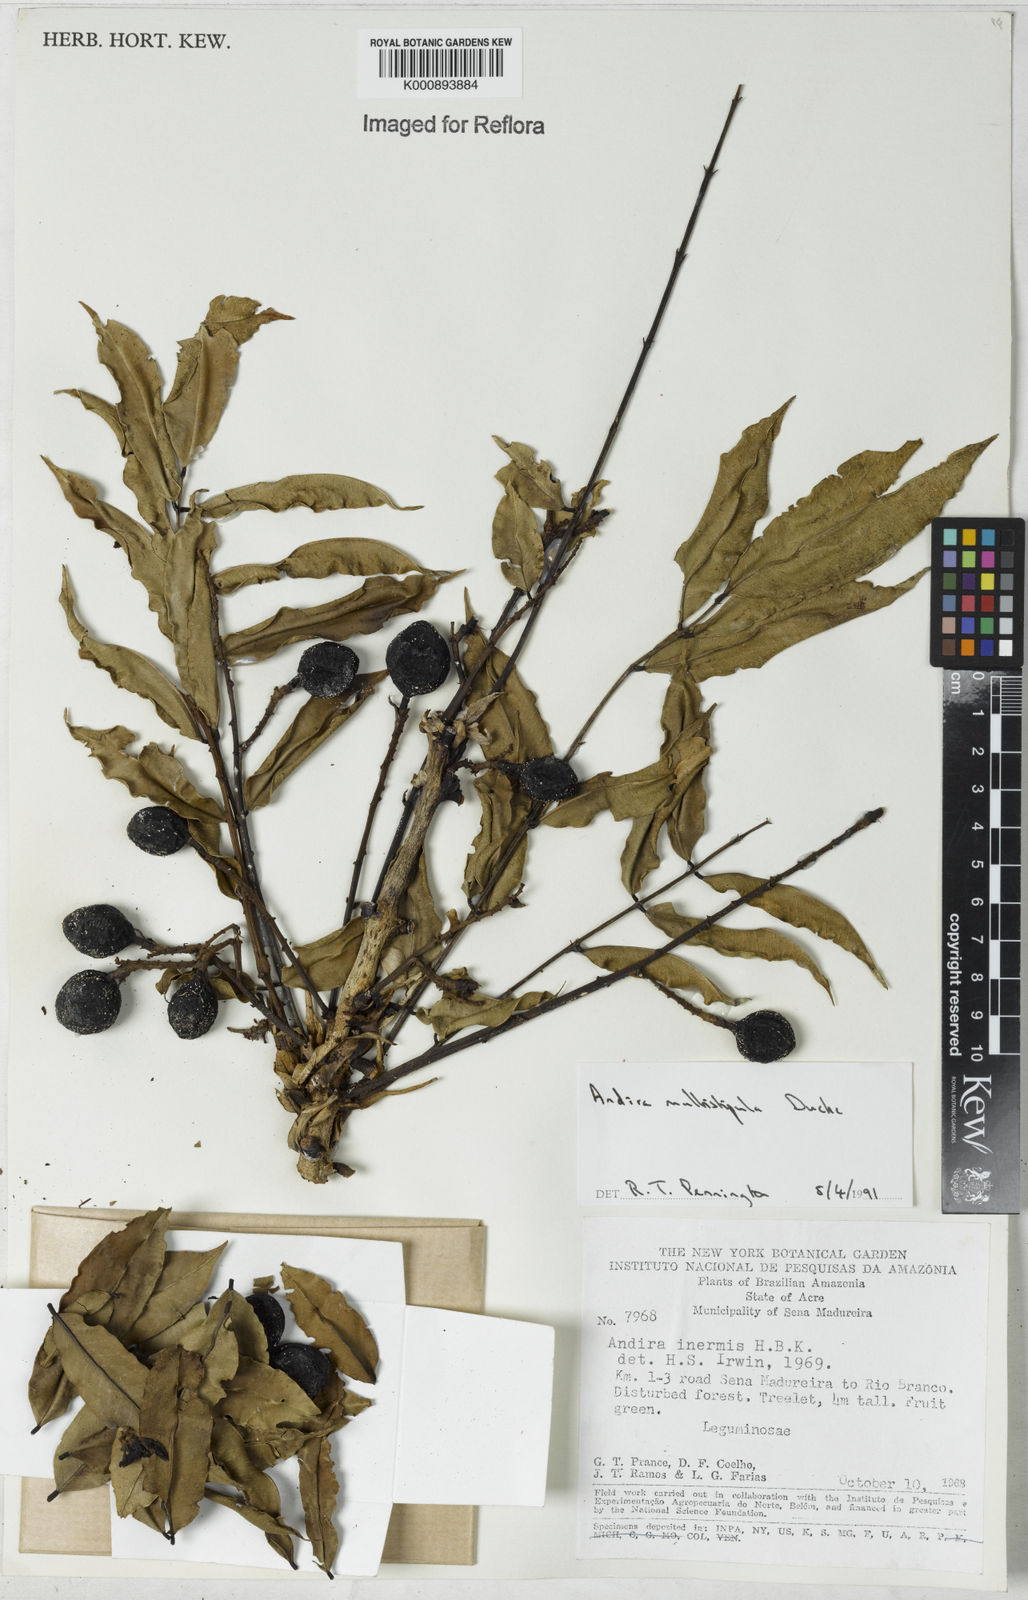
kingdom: Plantae
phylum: Tracheophyta
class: Magnoliopsida
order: Fabales
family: Fabaceae
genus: Andira
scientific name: Andira multistipula
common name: Pisho
